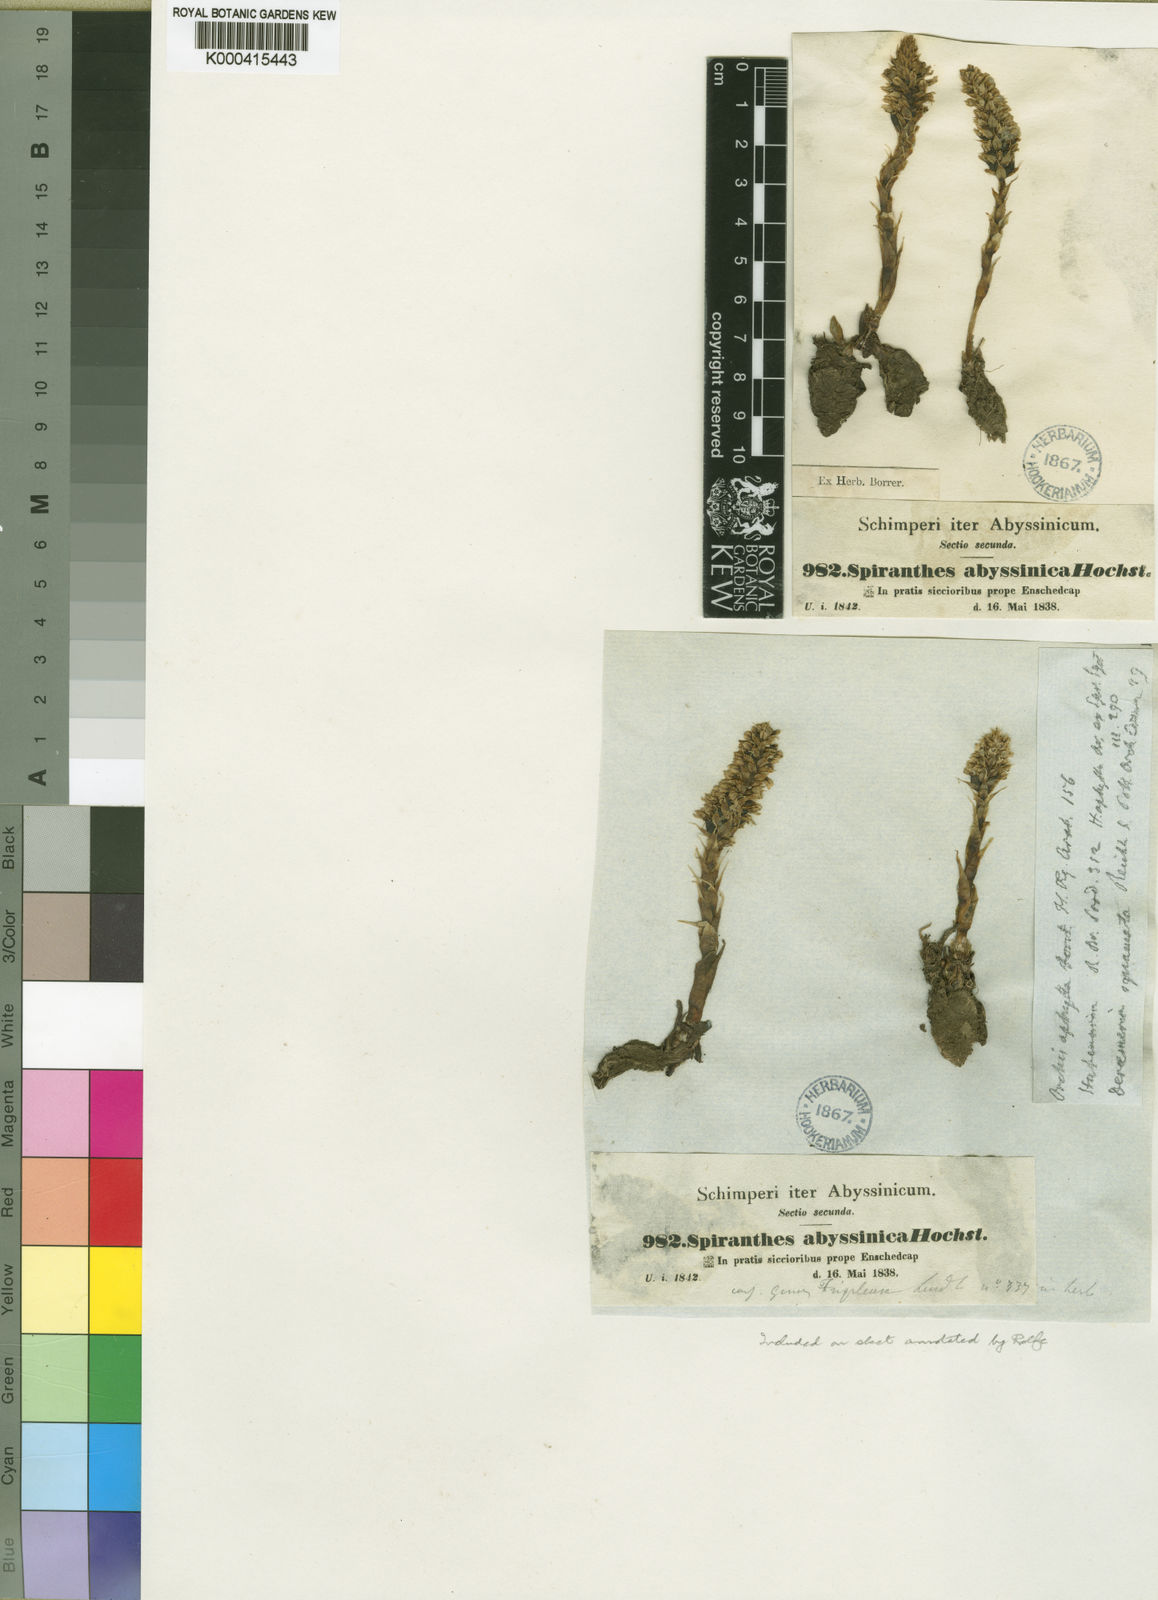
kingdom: Plantae
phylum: Tracheophyta
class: Liliopsida
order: Asparagales
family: Orchidaceae
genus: Holothrix
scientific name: Holothrix squammata
